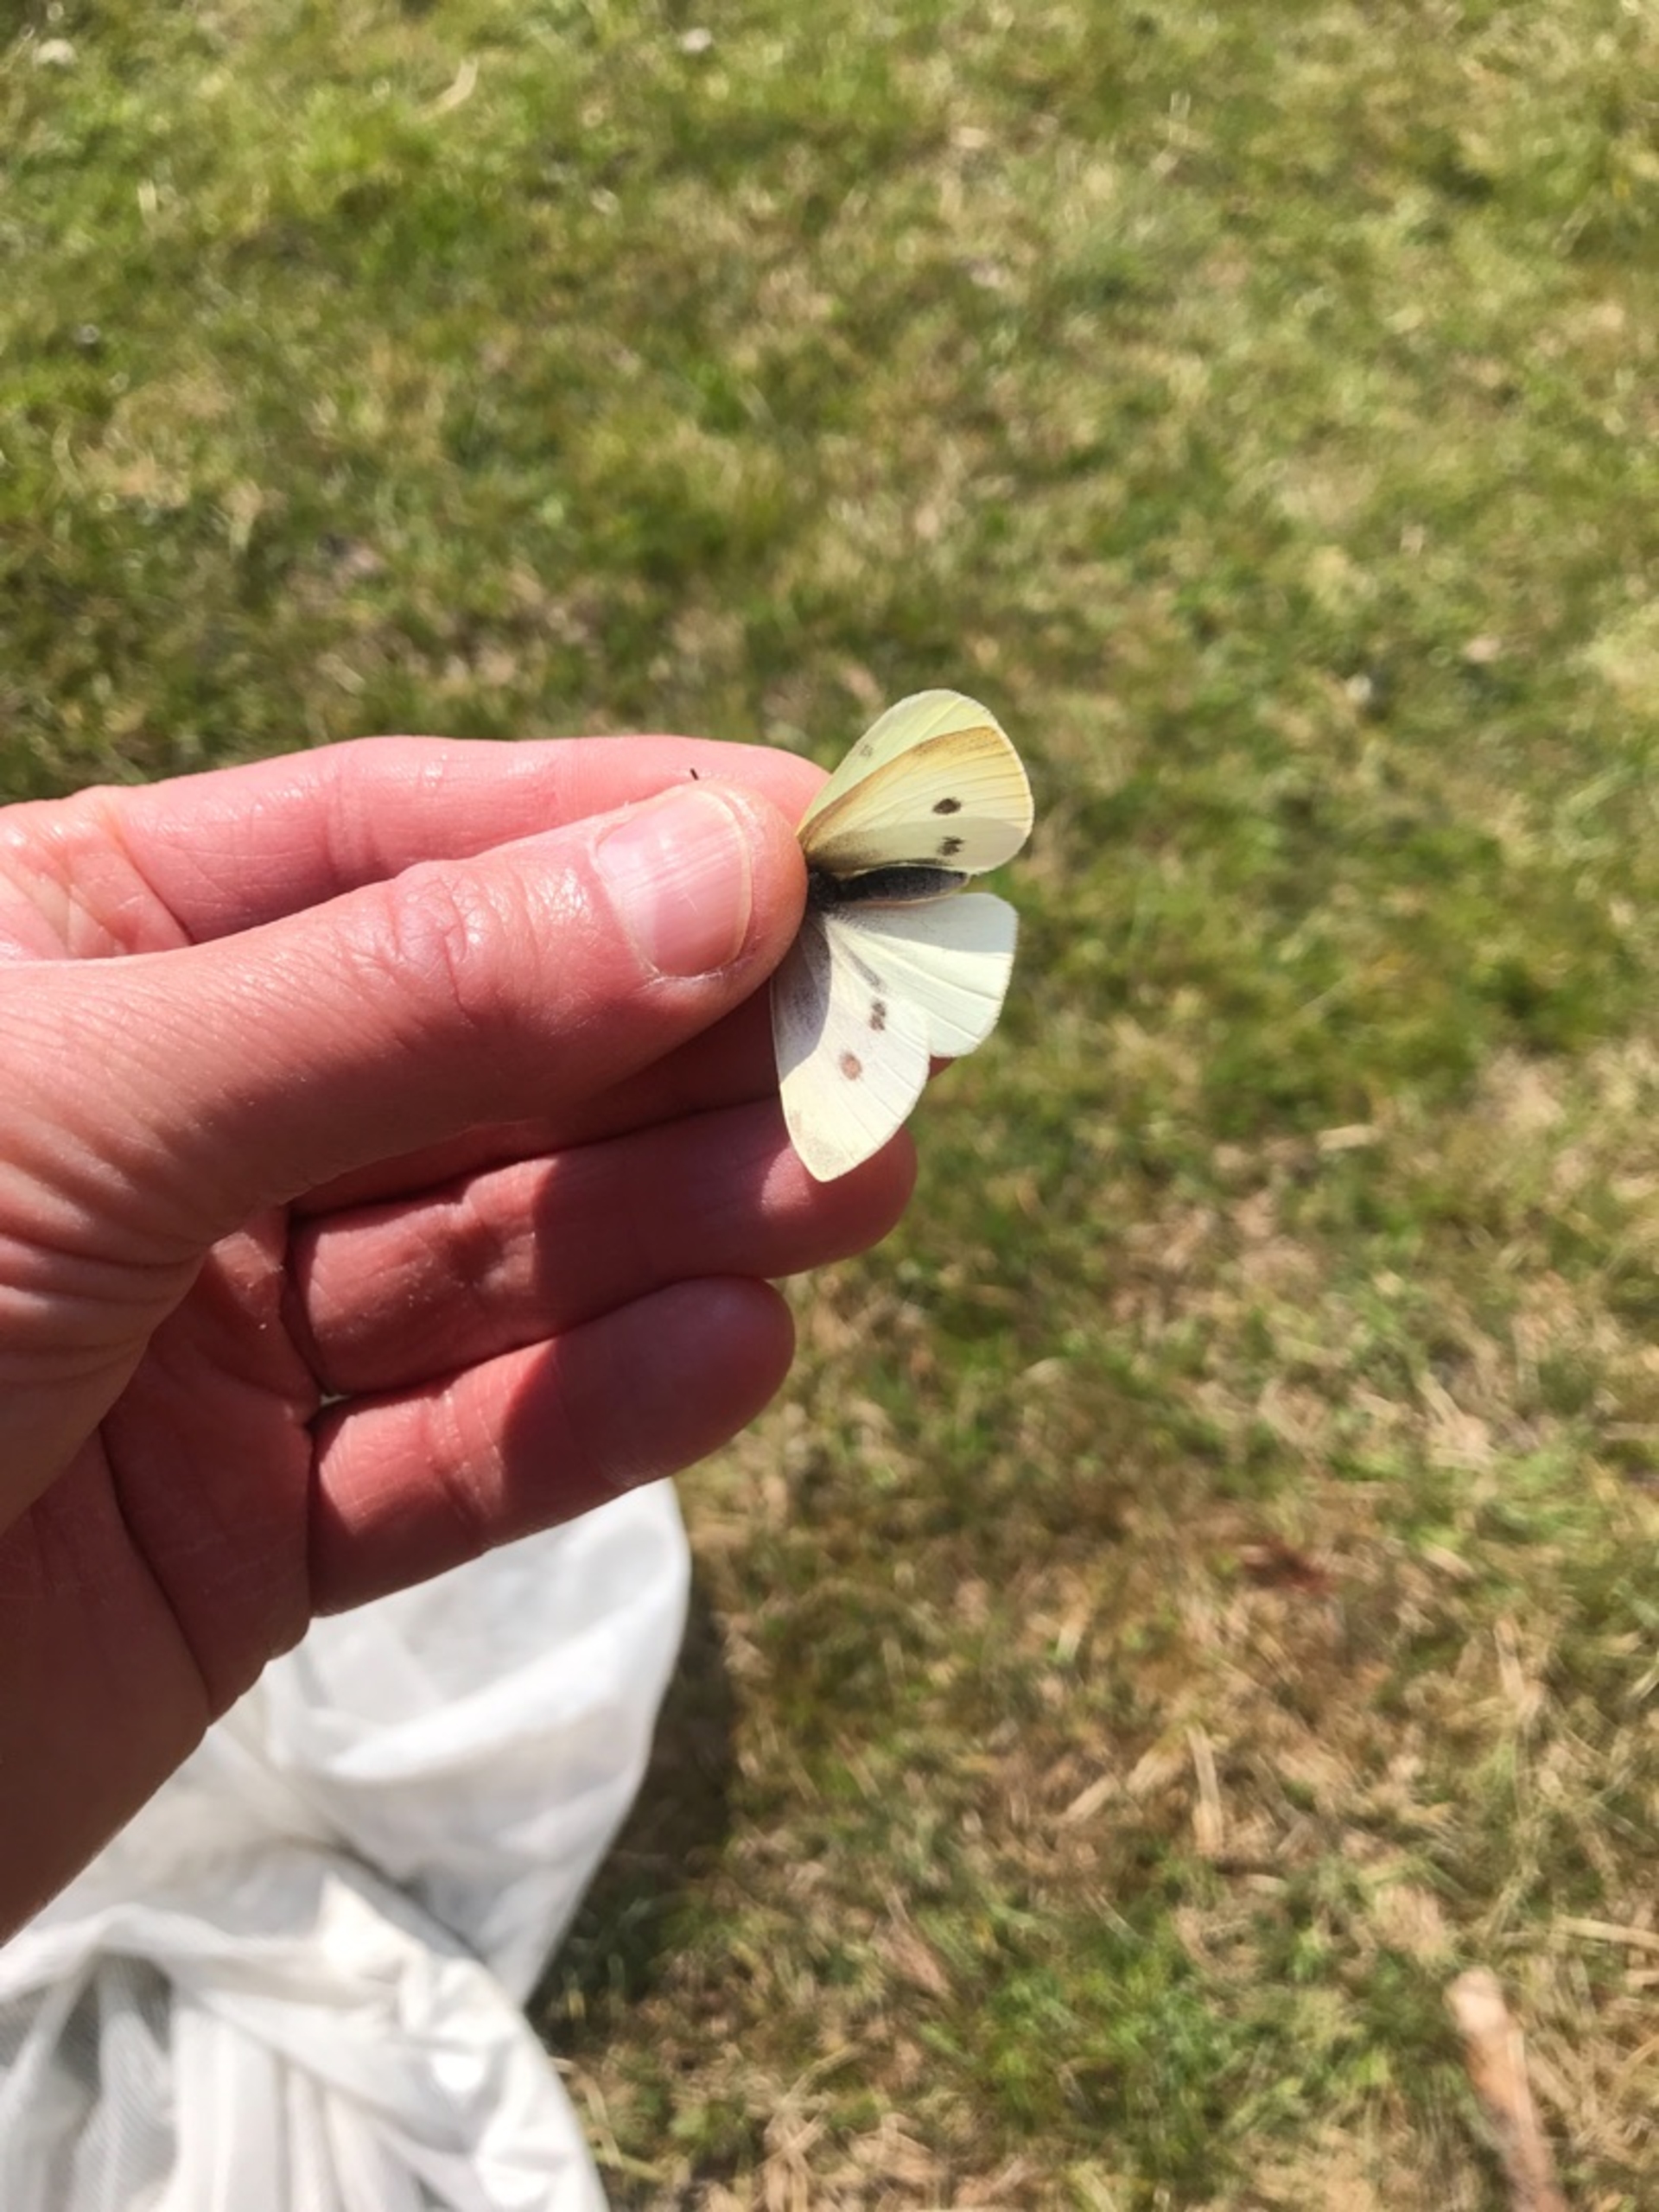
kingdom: Animalia
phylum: Arthropoda
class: Insecta
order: Lepidoptera
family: Pieridae
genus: Pieris
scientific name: Pieris rapae
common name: Lille kålsommerfugl
